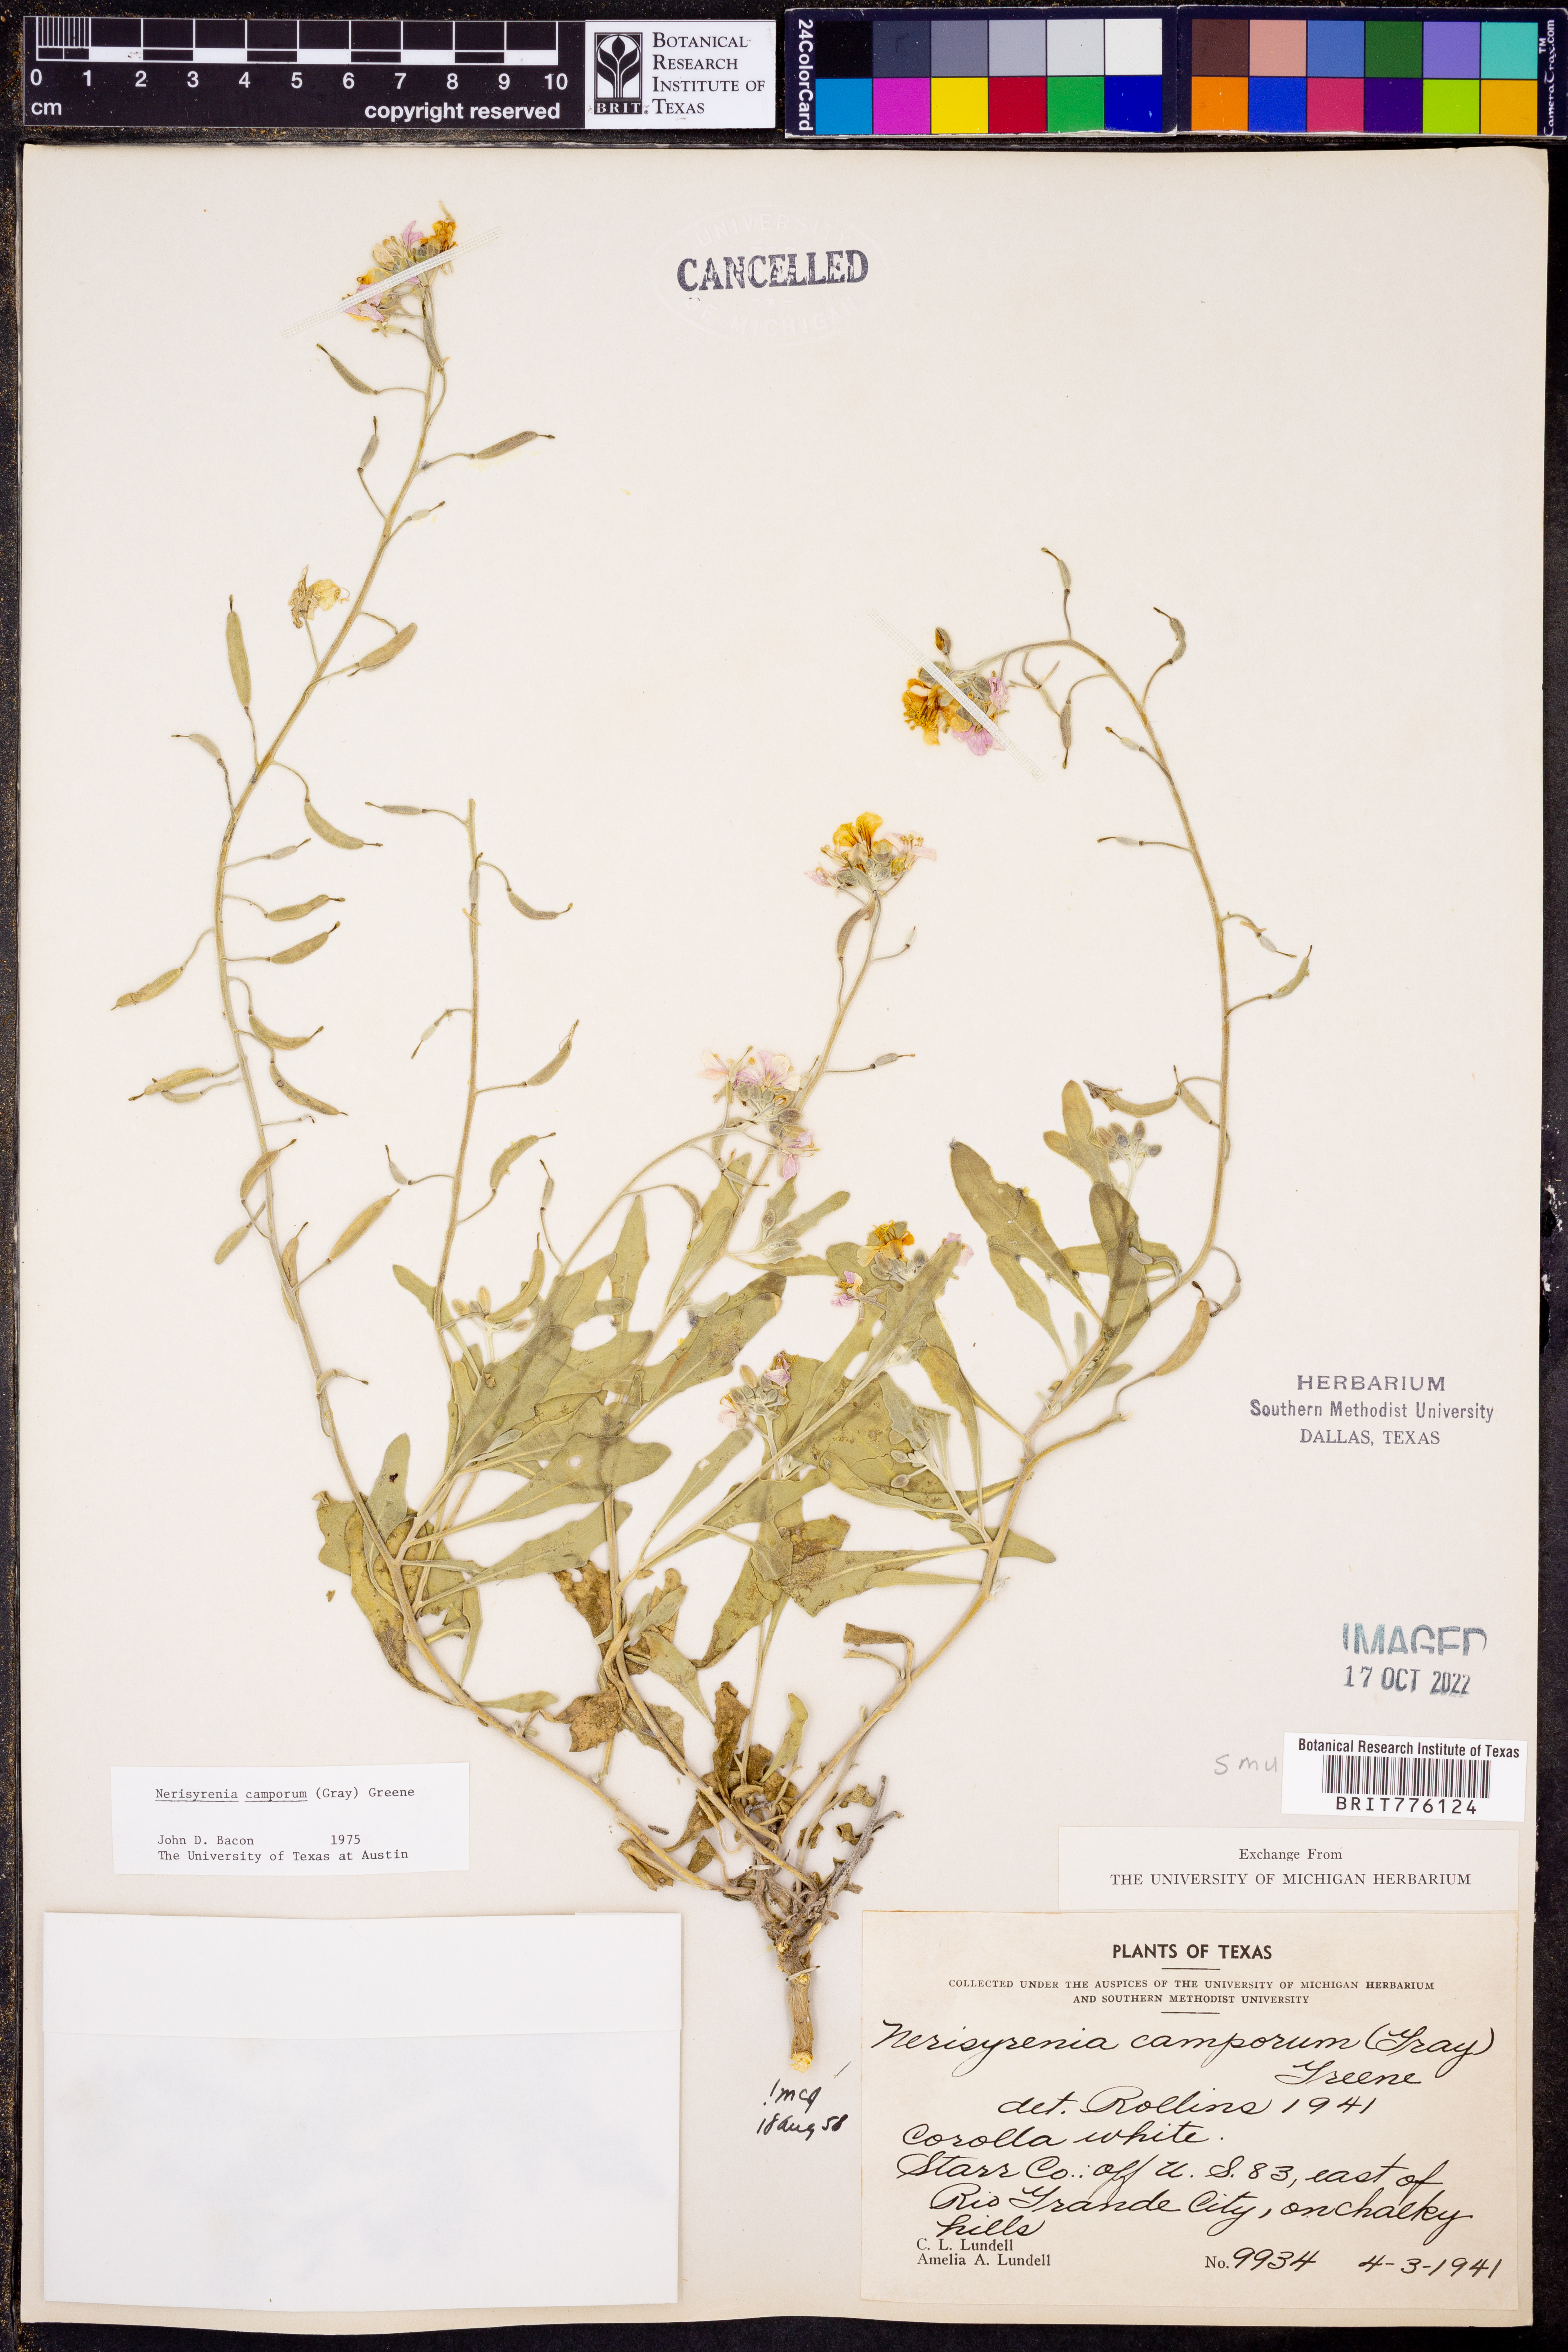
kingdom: Plantae
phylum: Tracheophyta
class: Magnoliopsida
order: Brassicales
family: Brassicaceae
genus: Nerisyrenia
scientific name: Nerisyrenia camporum
